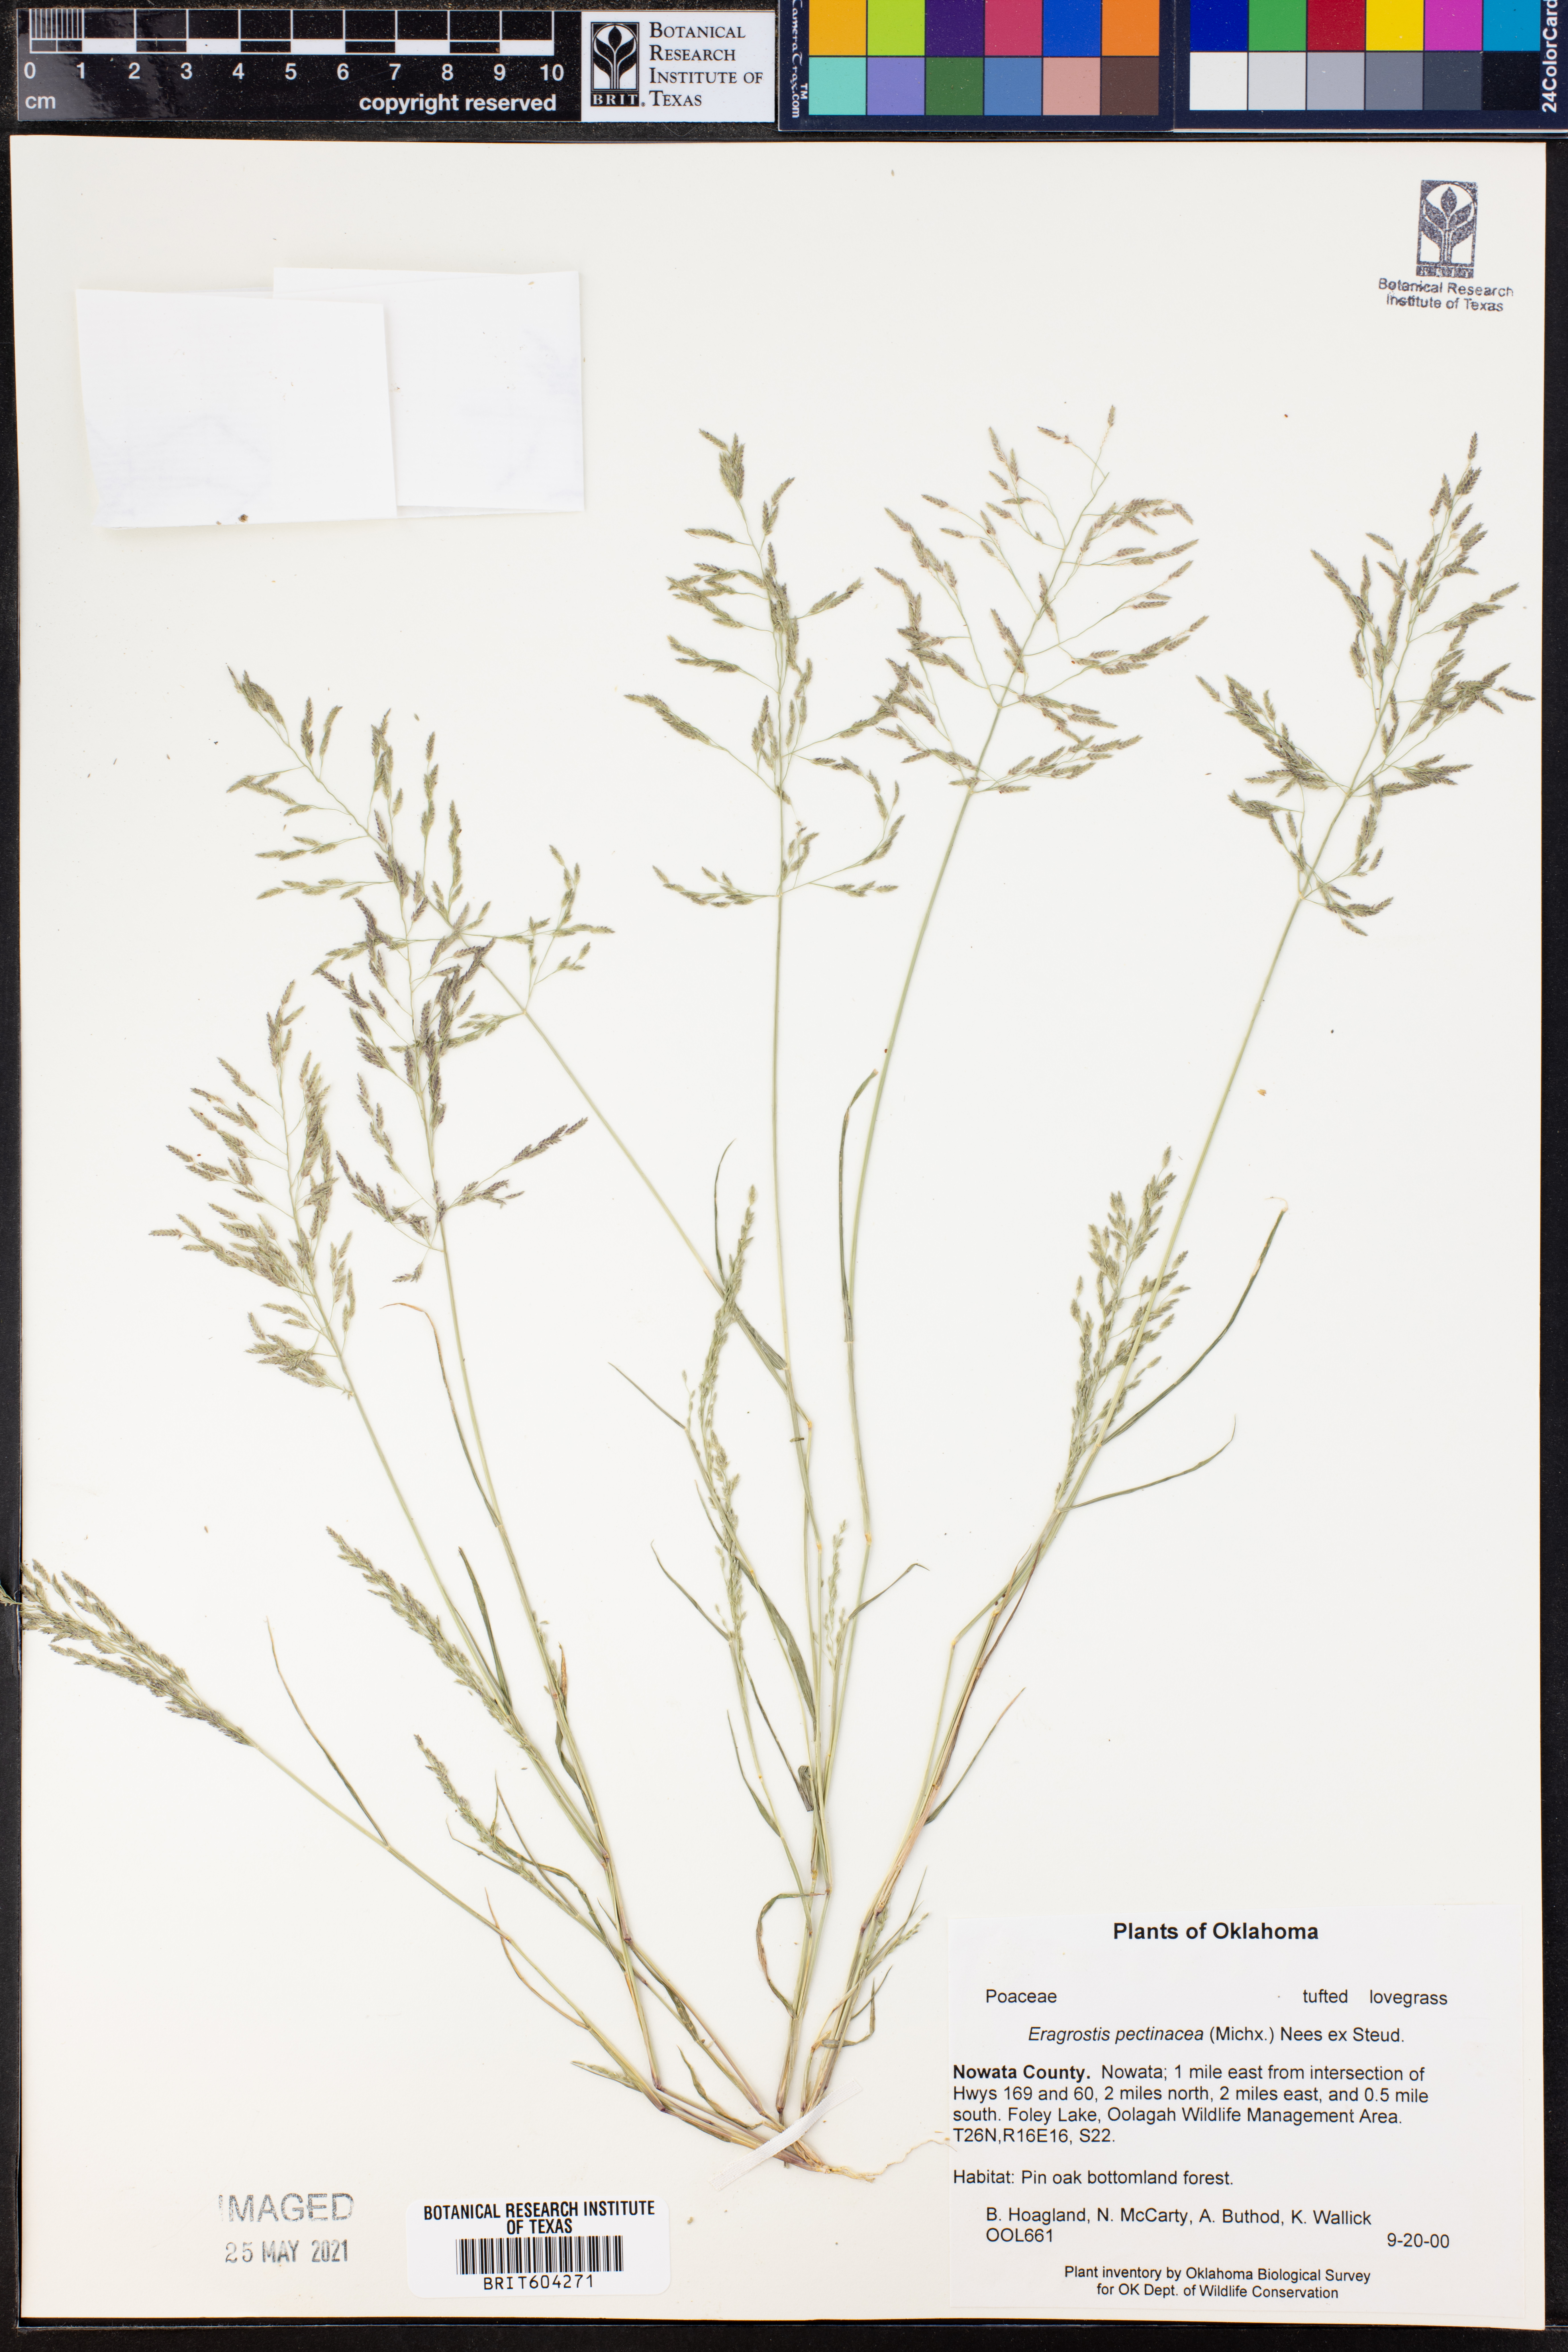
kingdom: Plantae
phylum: Tracheophyta
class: Liliopsida
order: Poales
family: Poaceae
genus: Eragrostis
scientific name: Eragrostis pectinacea
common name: Tufted lovegrass
